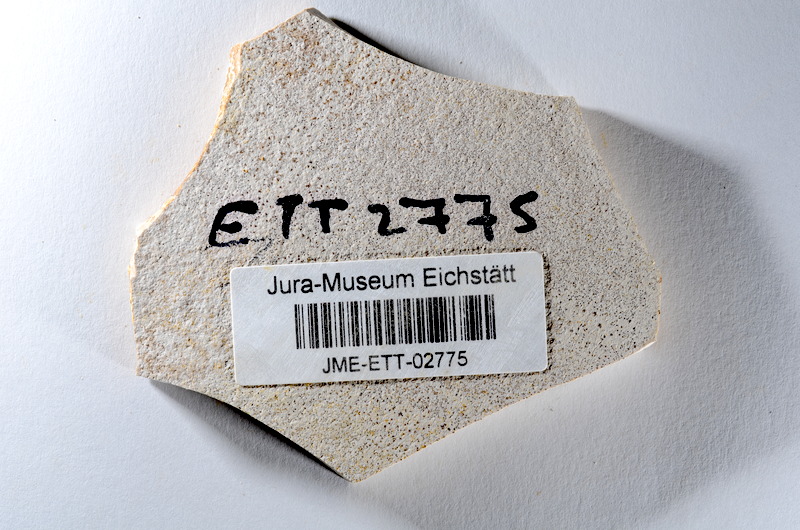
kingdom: Animalia
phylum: Chordata
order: Salmoniformes
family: Orthogonikleithridae
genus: Orthogonikleithrus
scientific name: Orthogonikleithrus hoelli
